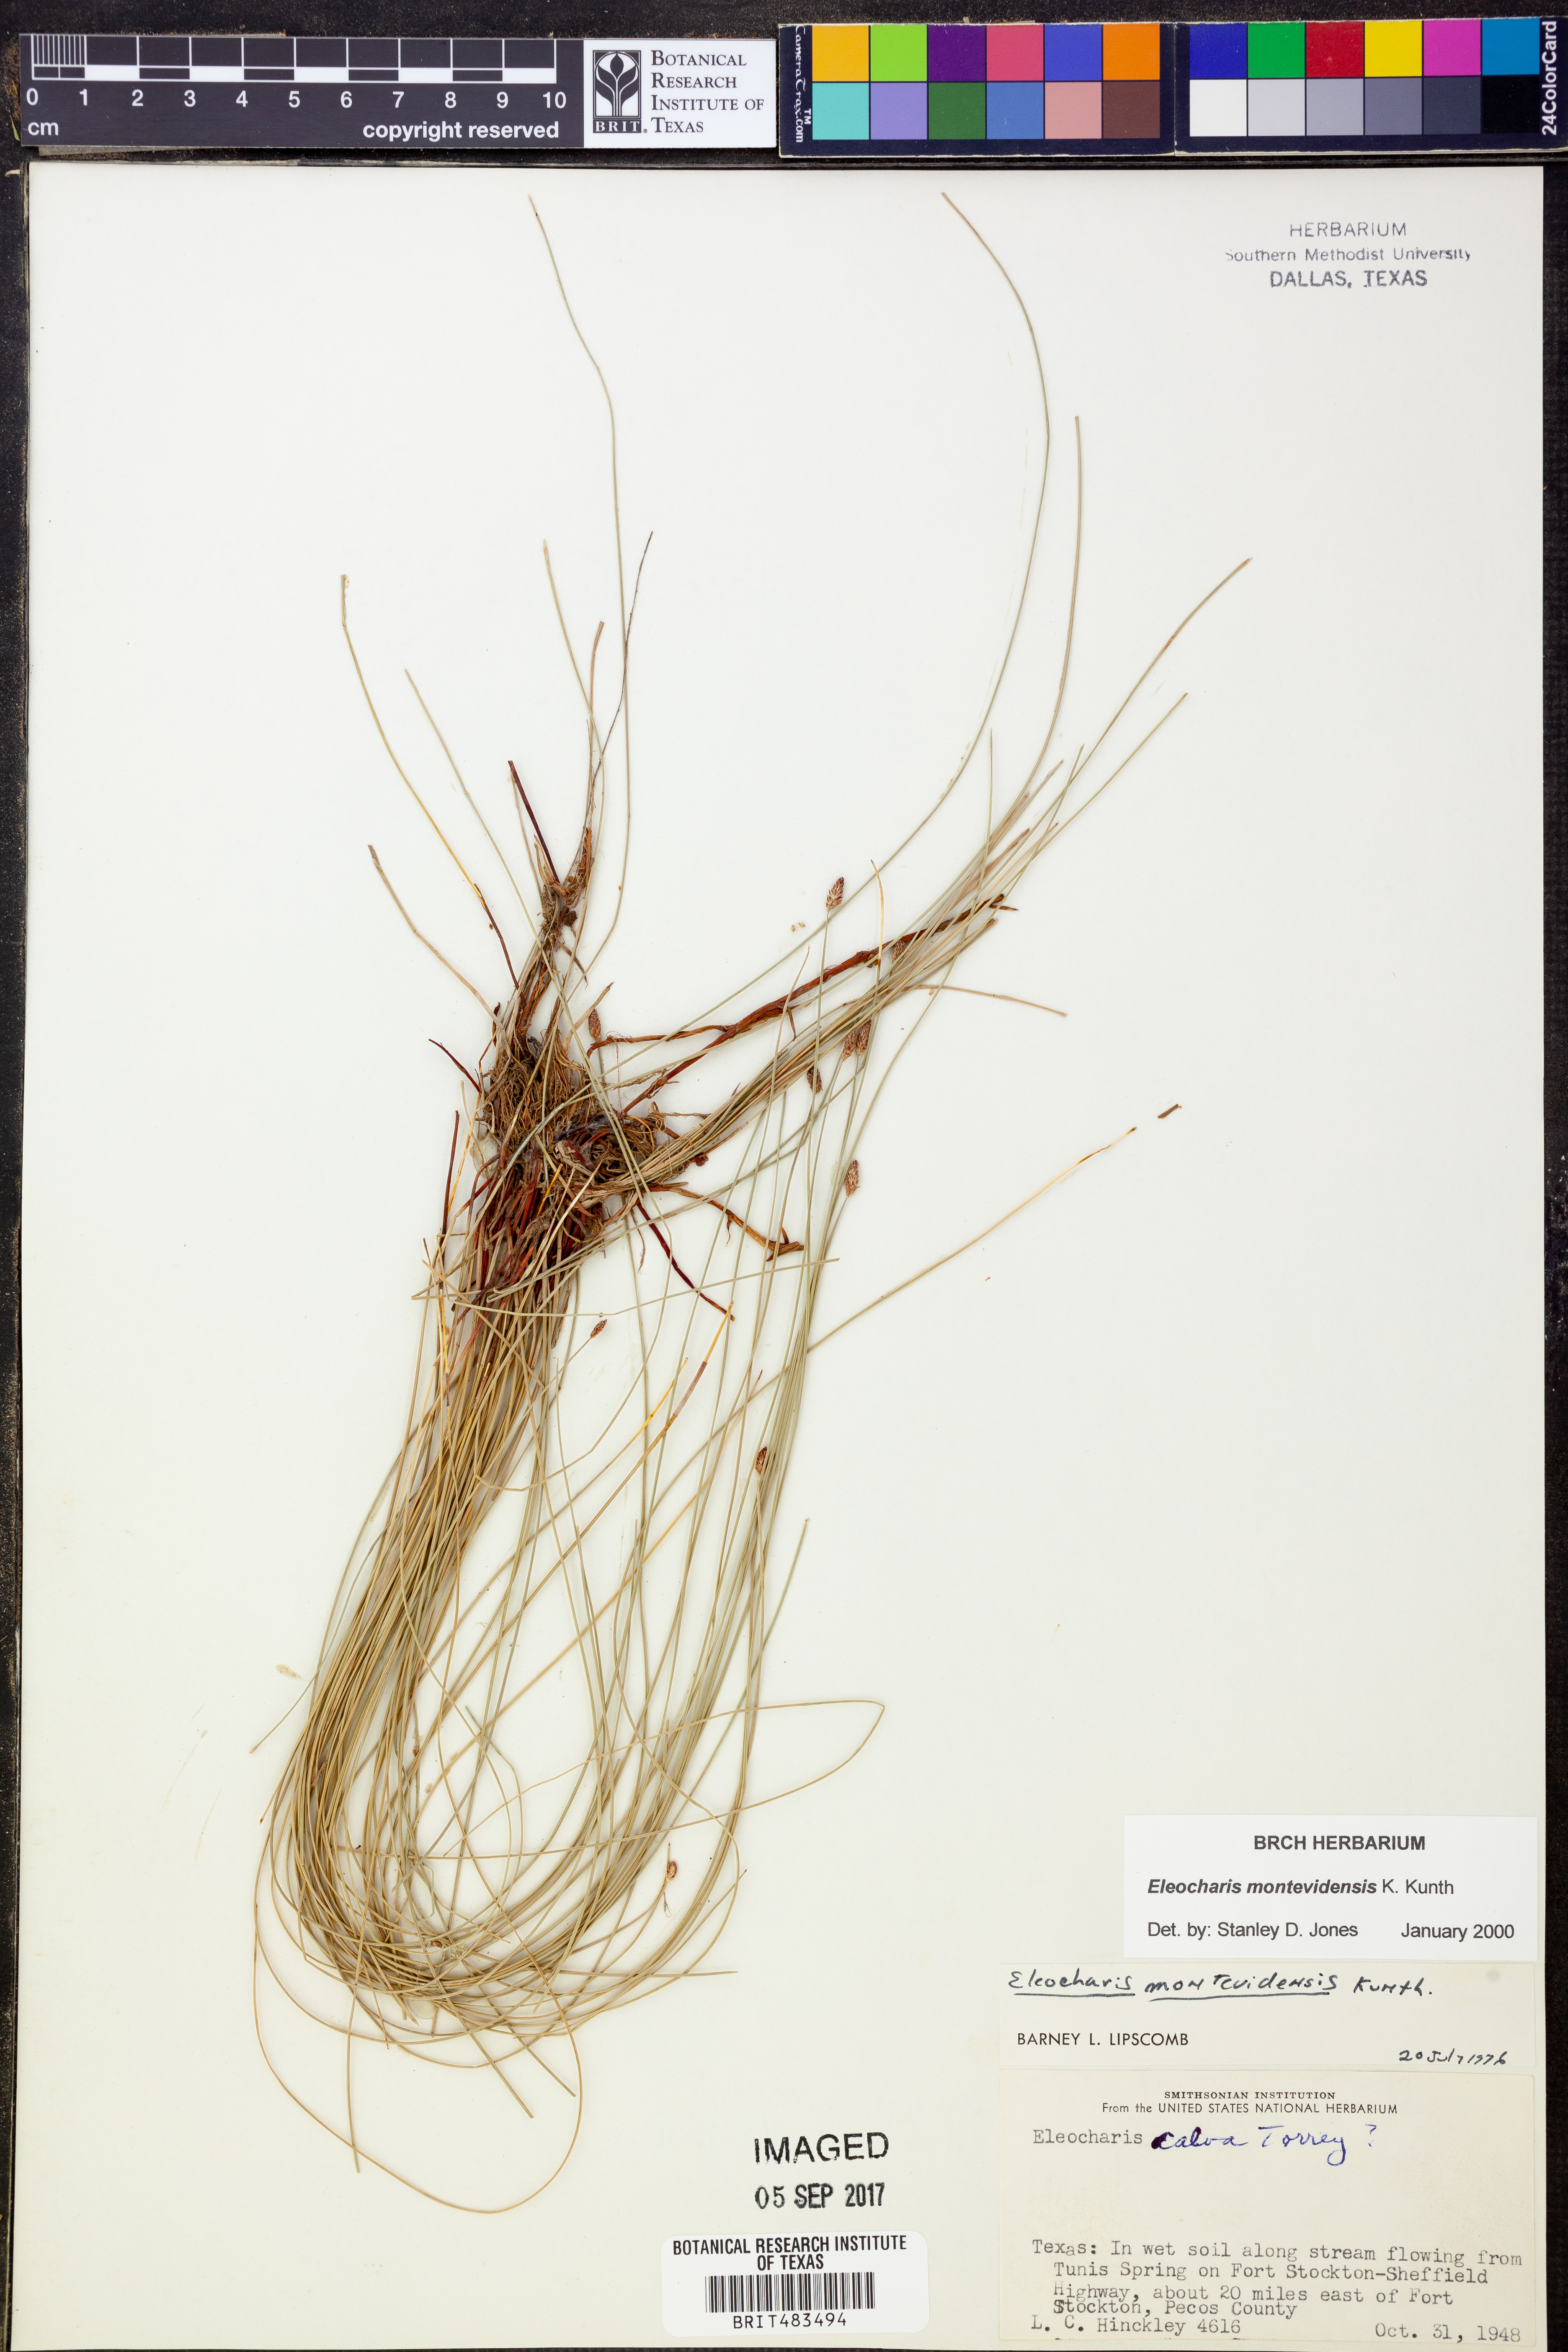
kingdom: Plantae
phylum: Tracheophyta
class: Liliopsida
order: Poales
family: Cyperaceae
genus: Eleocharis
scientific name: Eleocharis montevidensis
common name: Sand spike-rush
